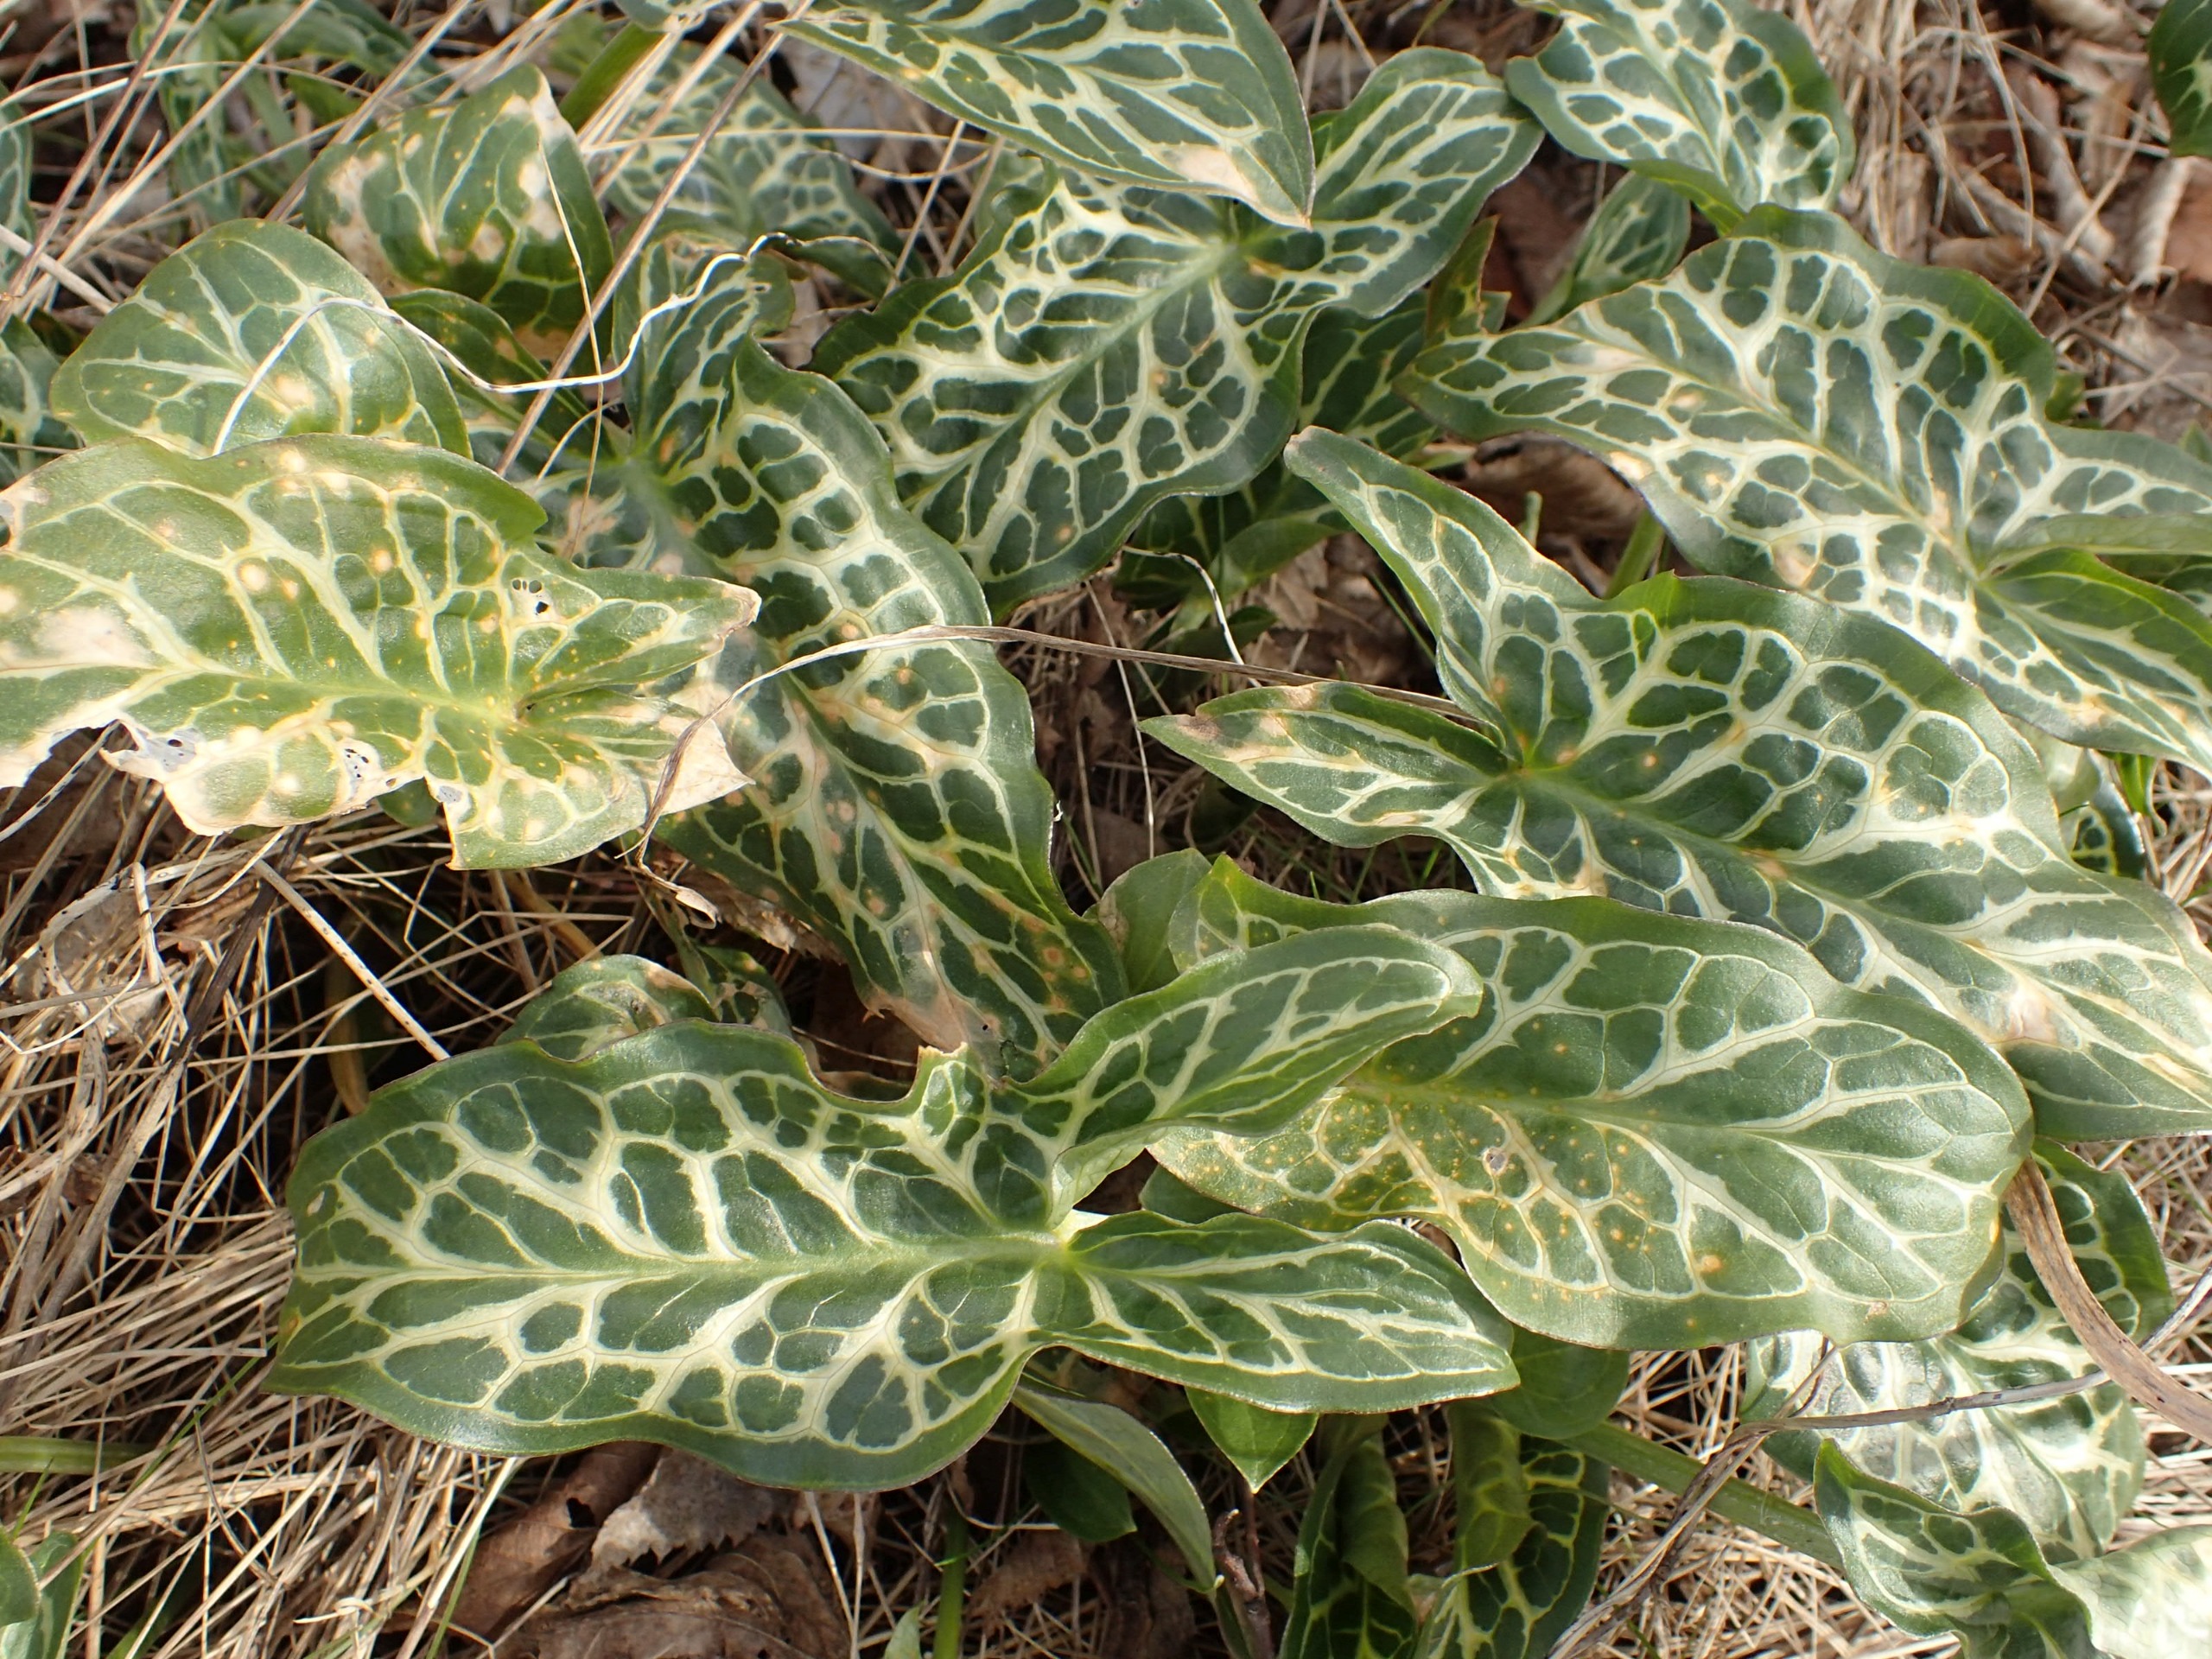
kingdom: Plantae
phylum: Tracheophyta
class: Liliopsida
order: Alismatales
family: Araceae
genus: Arum
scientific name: Arum italicum
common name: Italiensk arum
